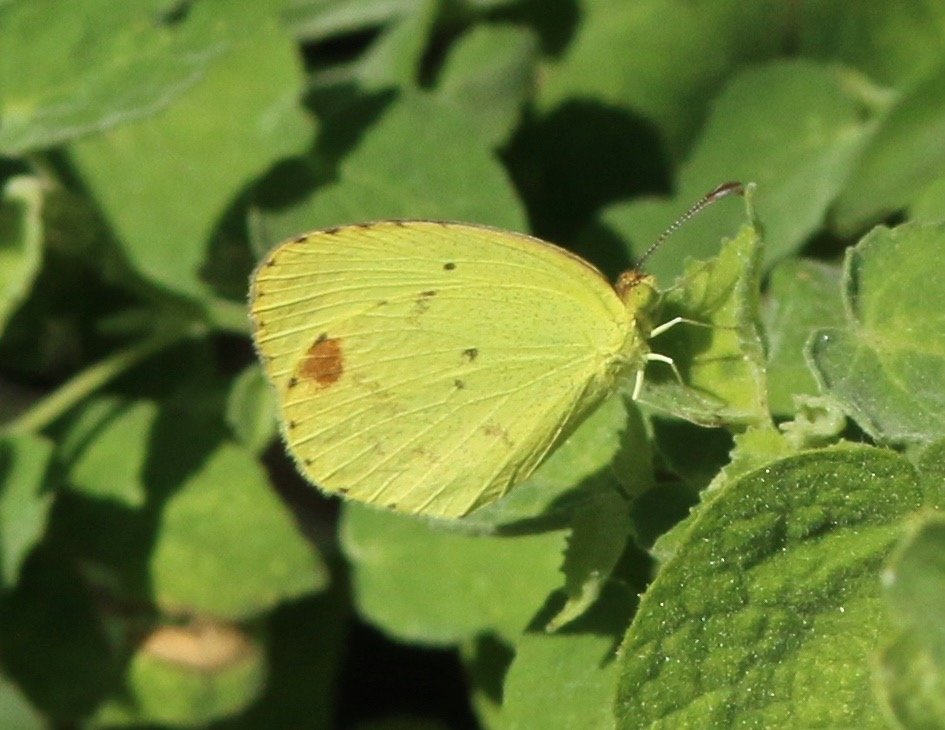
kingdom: Animalia
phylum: Arthropoda
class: Insecta
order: Lepidoptera
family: Pieridae
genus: Pyrisitia
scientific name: Pyrisitia nise
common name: Mimosa Yellow
